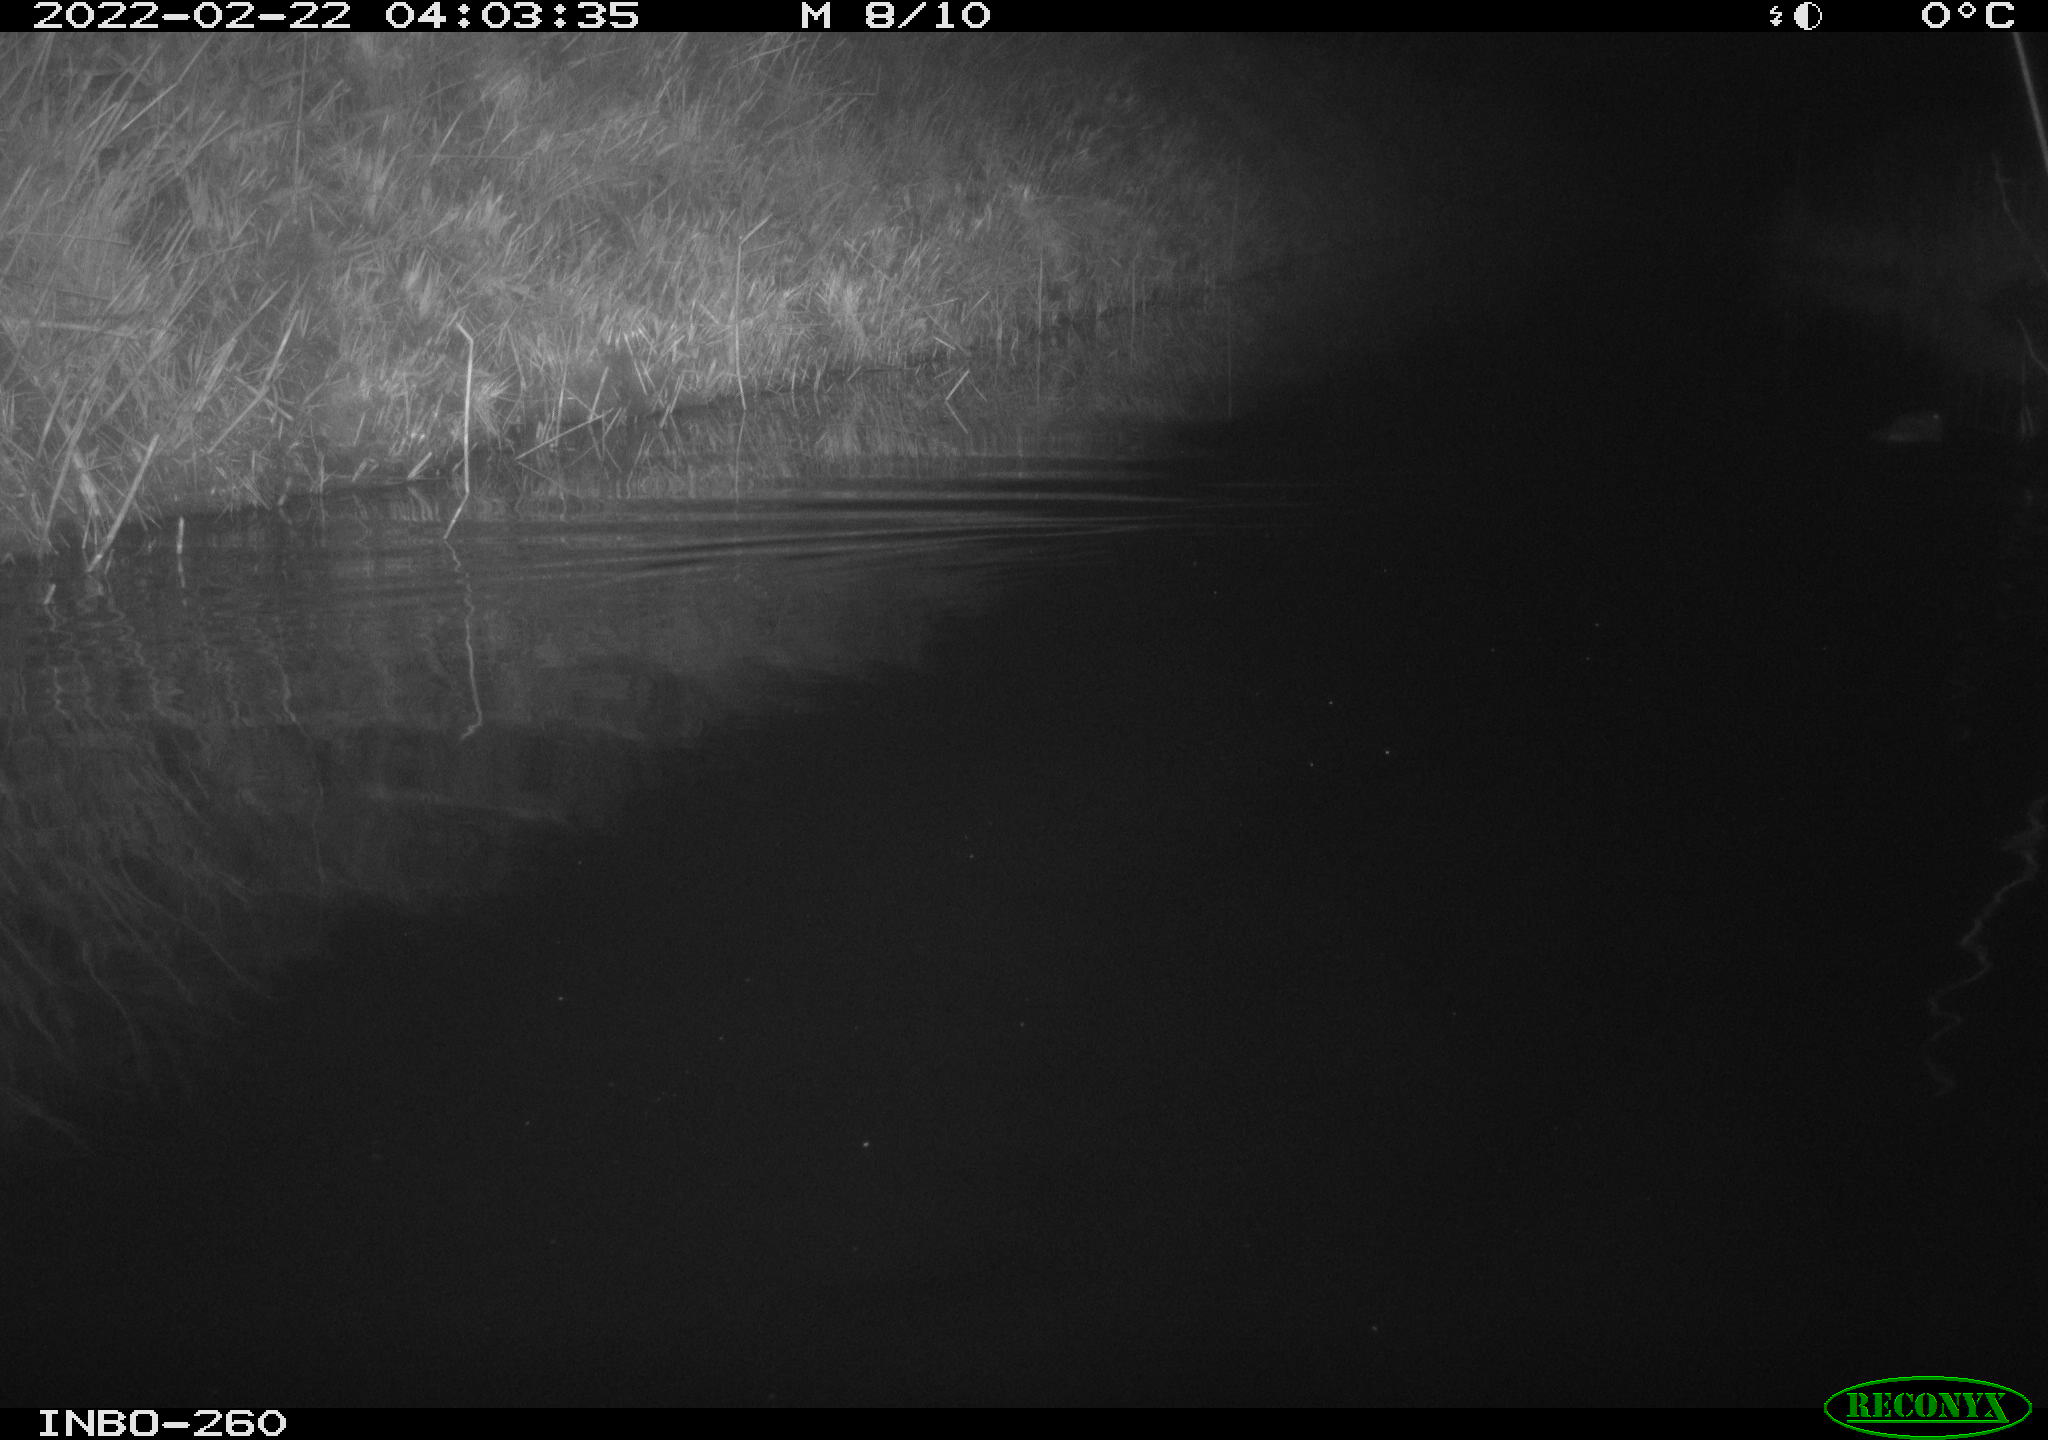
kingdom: Animalia
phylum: Chordata
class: Mammalia
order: Rodentia
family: Cricetidae
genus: Ondatra
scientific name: Ondatra zibethicus
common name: Muskrat
